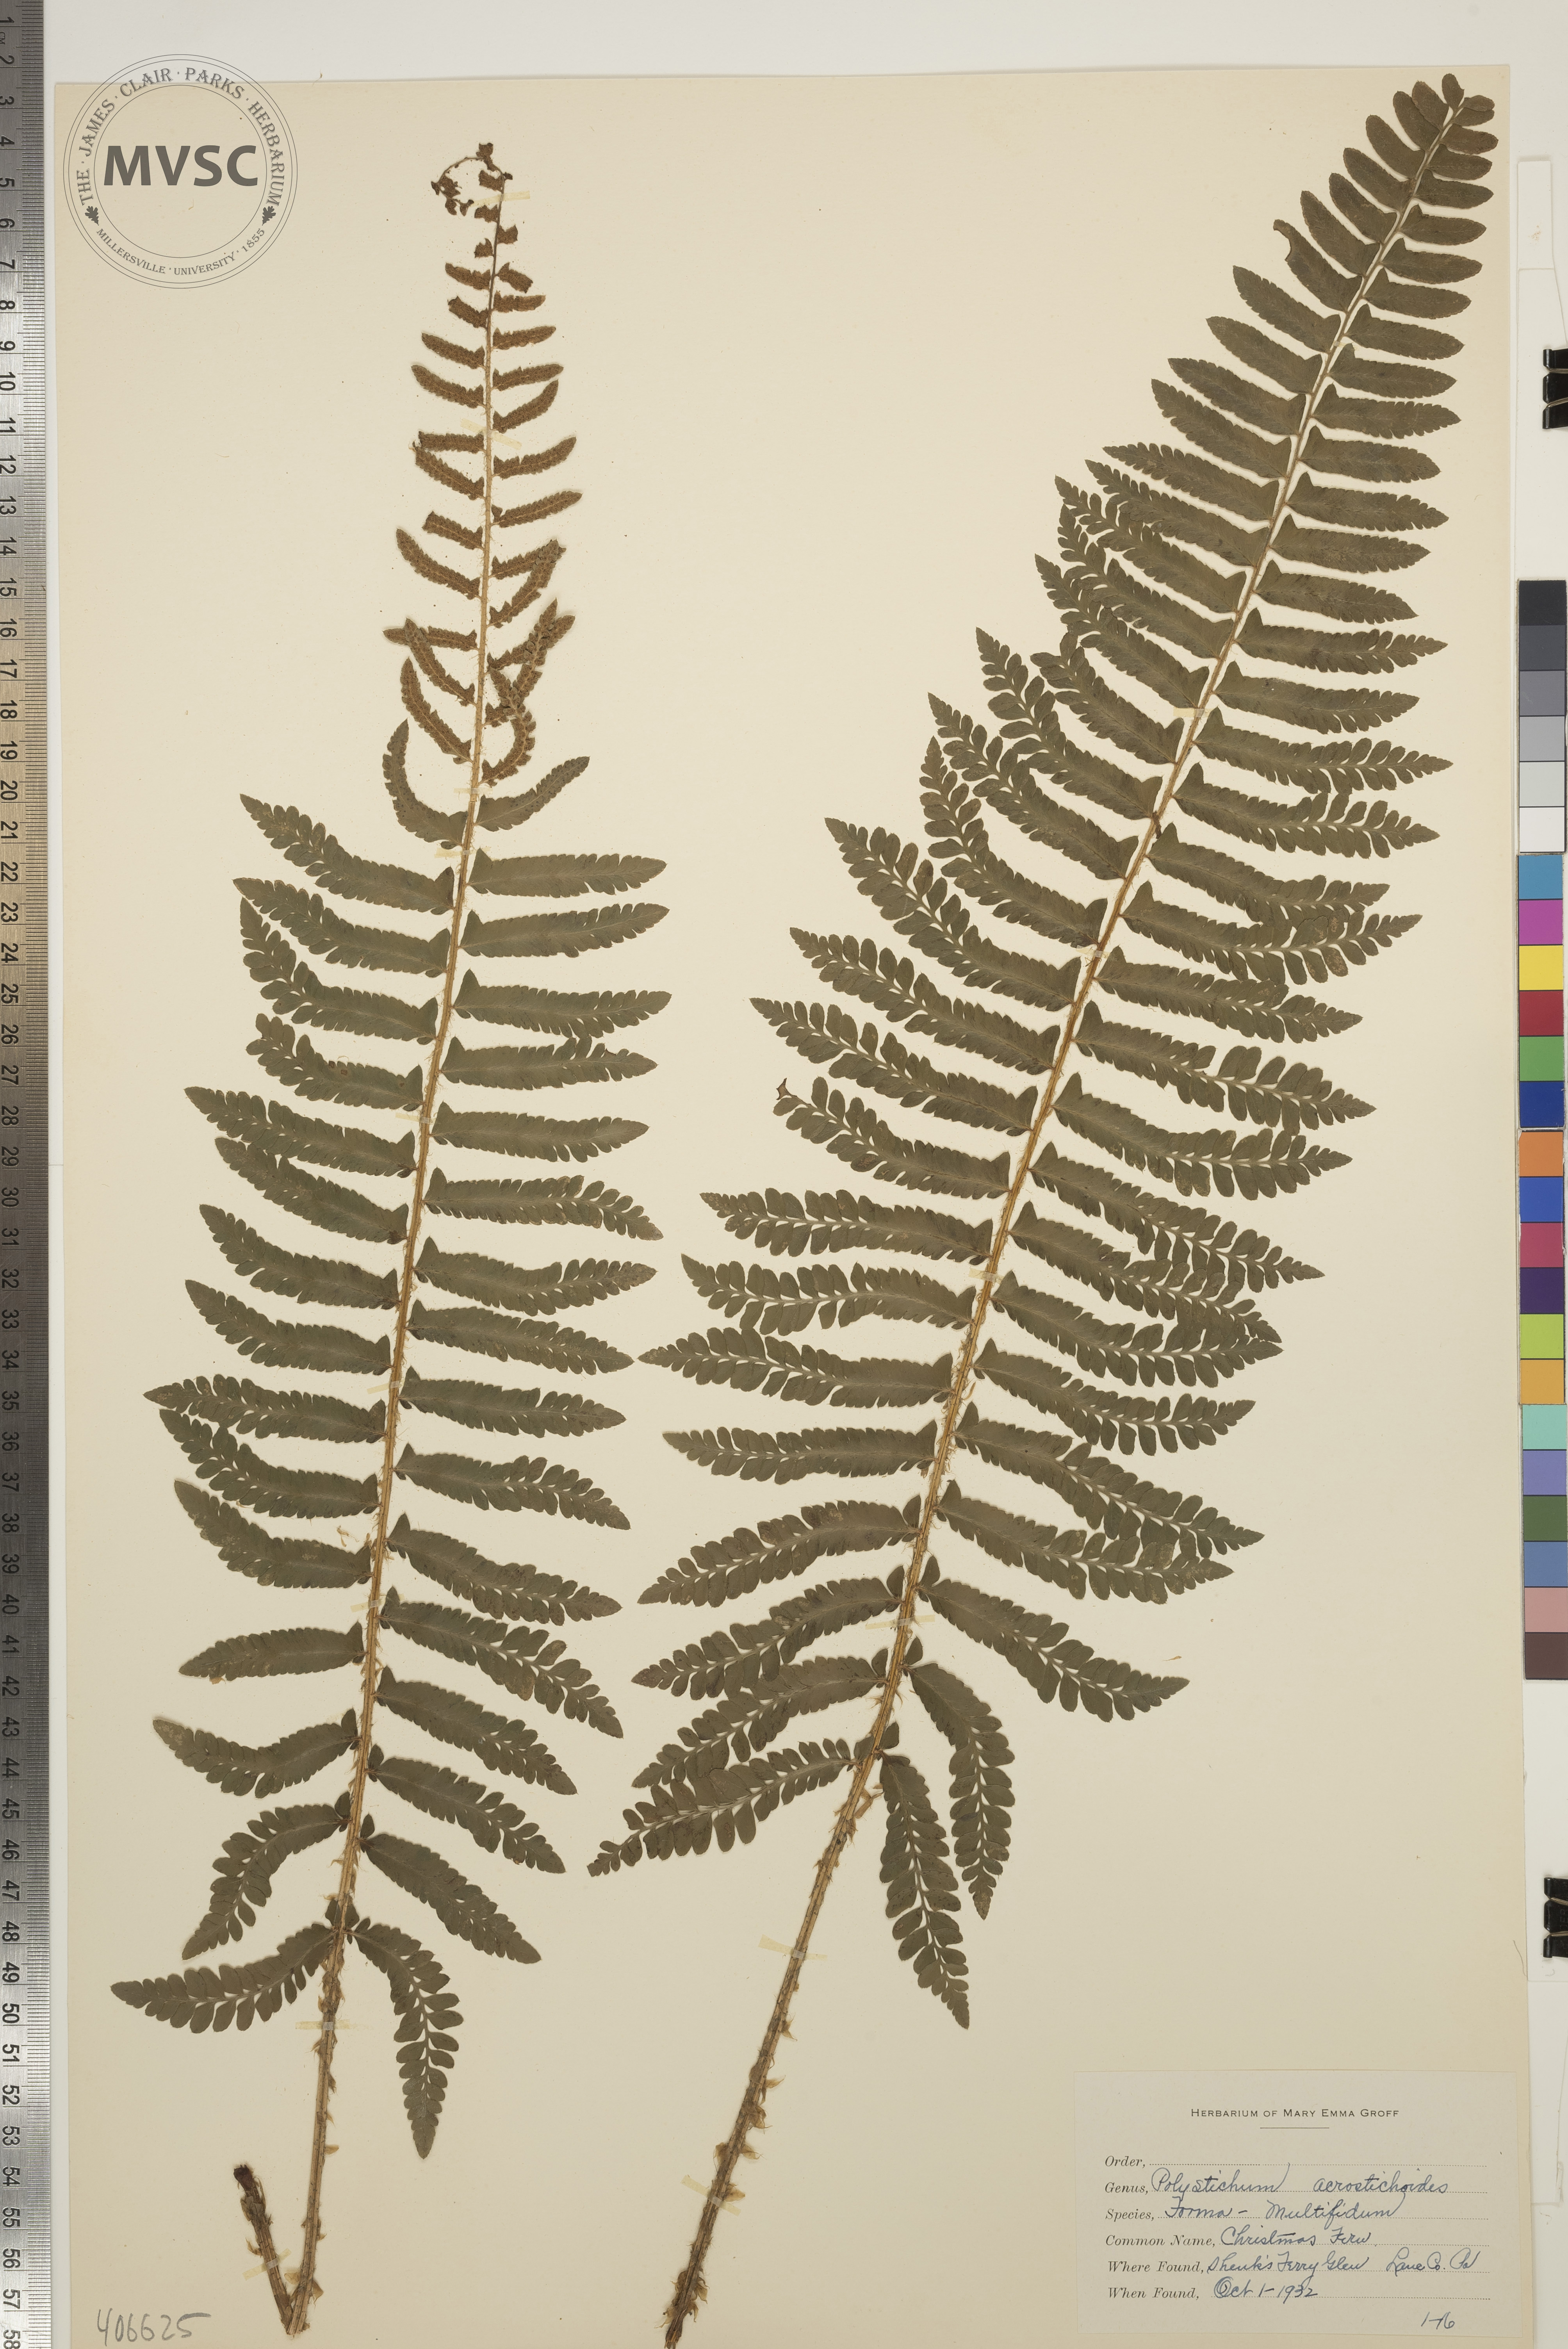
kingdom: Plantae
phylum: Tracheophyta
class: Polypodiopsida
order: Polypodiales
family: Dryopteridaceae
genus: Polystichum
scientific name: Polystichum acrostichoides
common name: Christmas Fern
